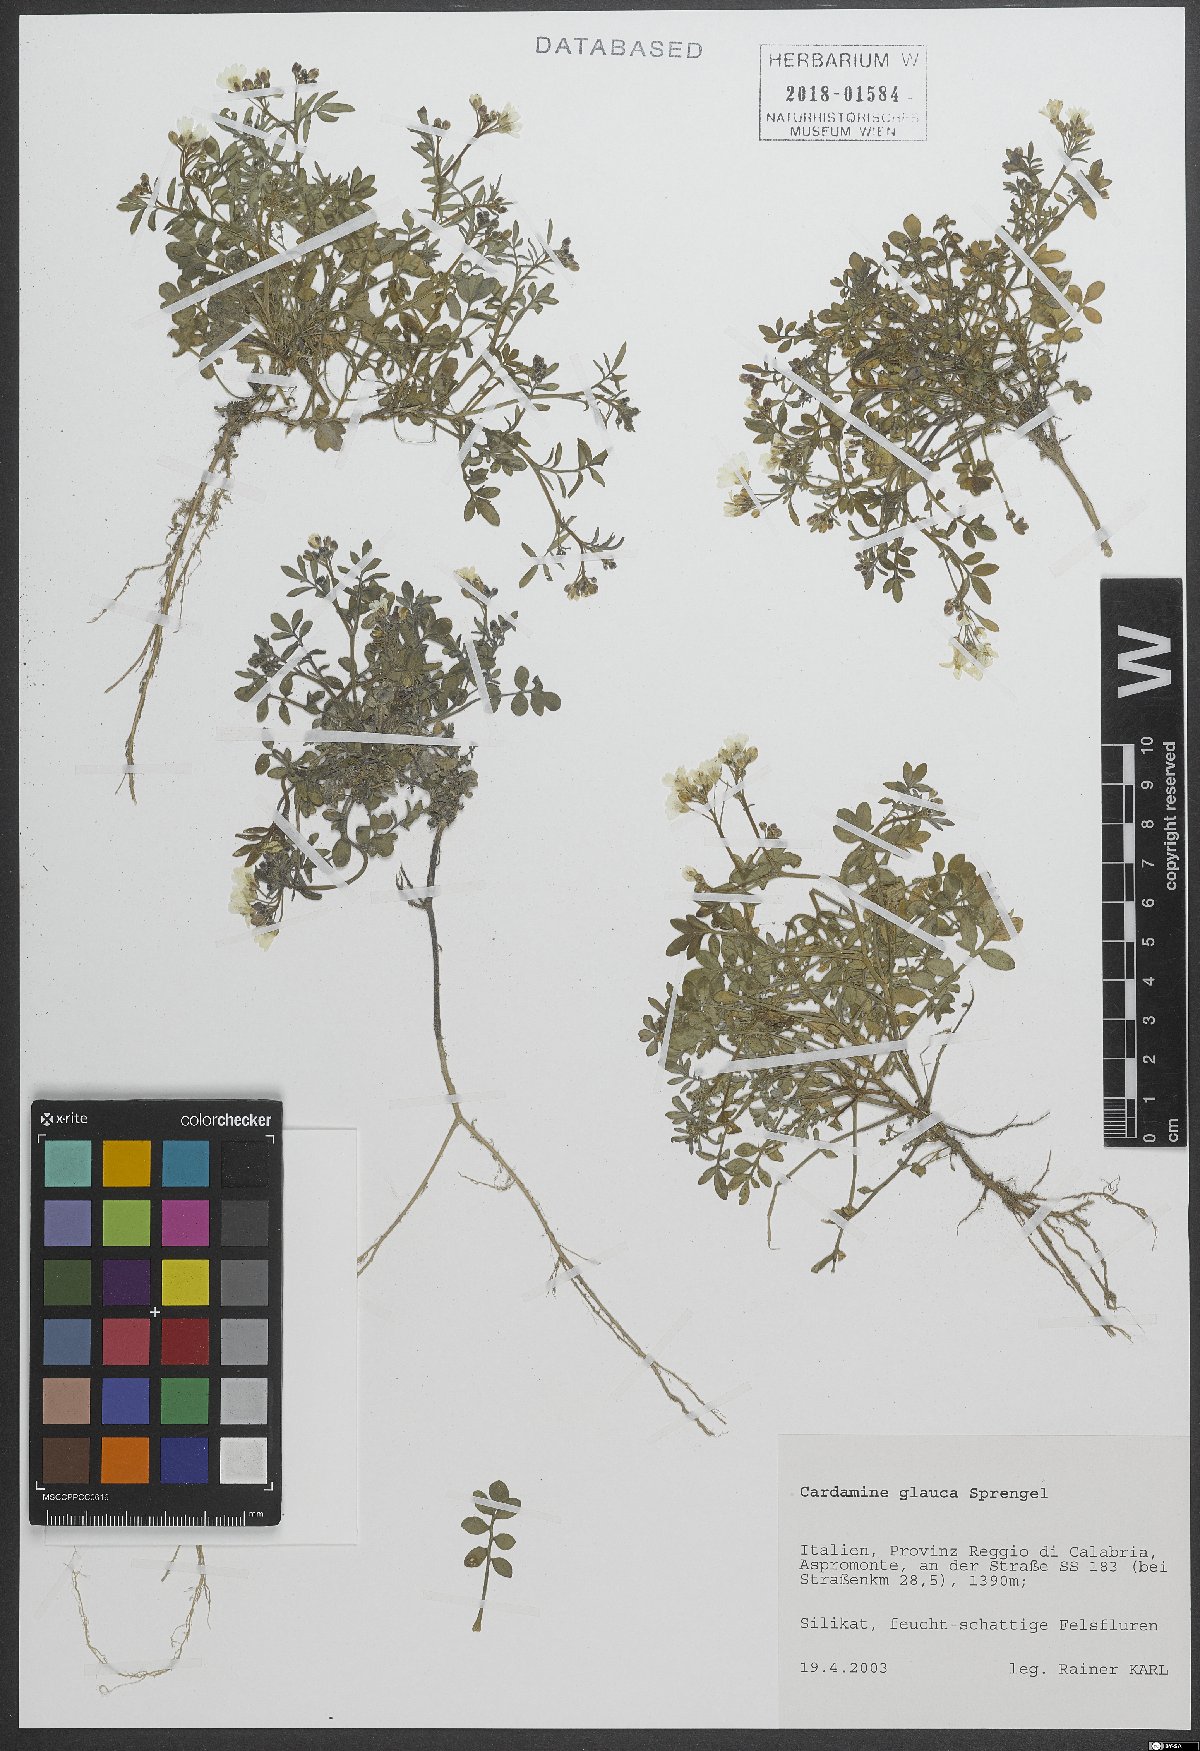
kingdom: Plantae
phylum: Tracheophyta
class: Magnoliopsida
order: Brassicales
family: Brassicaceae
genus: Cardamine
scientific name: Cardamine glauca
